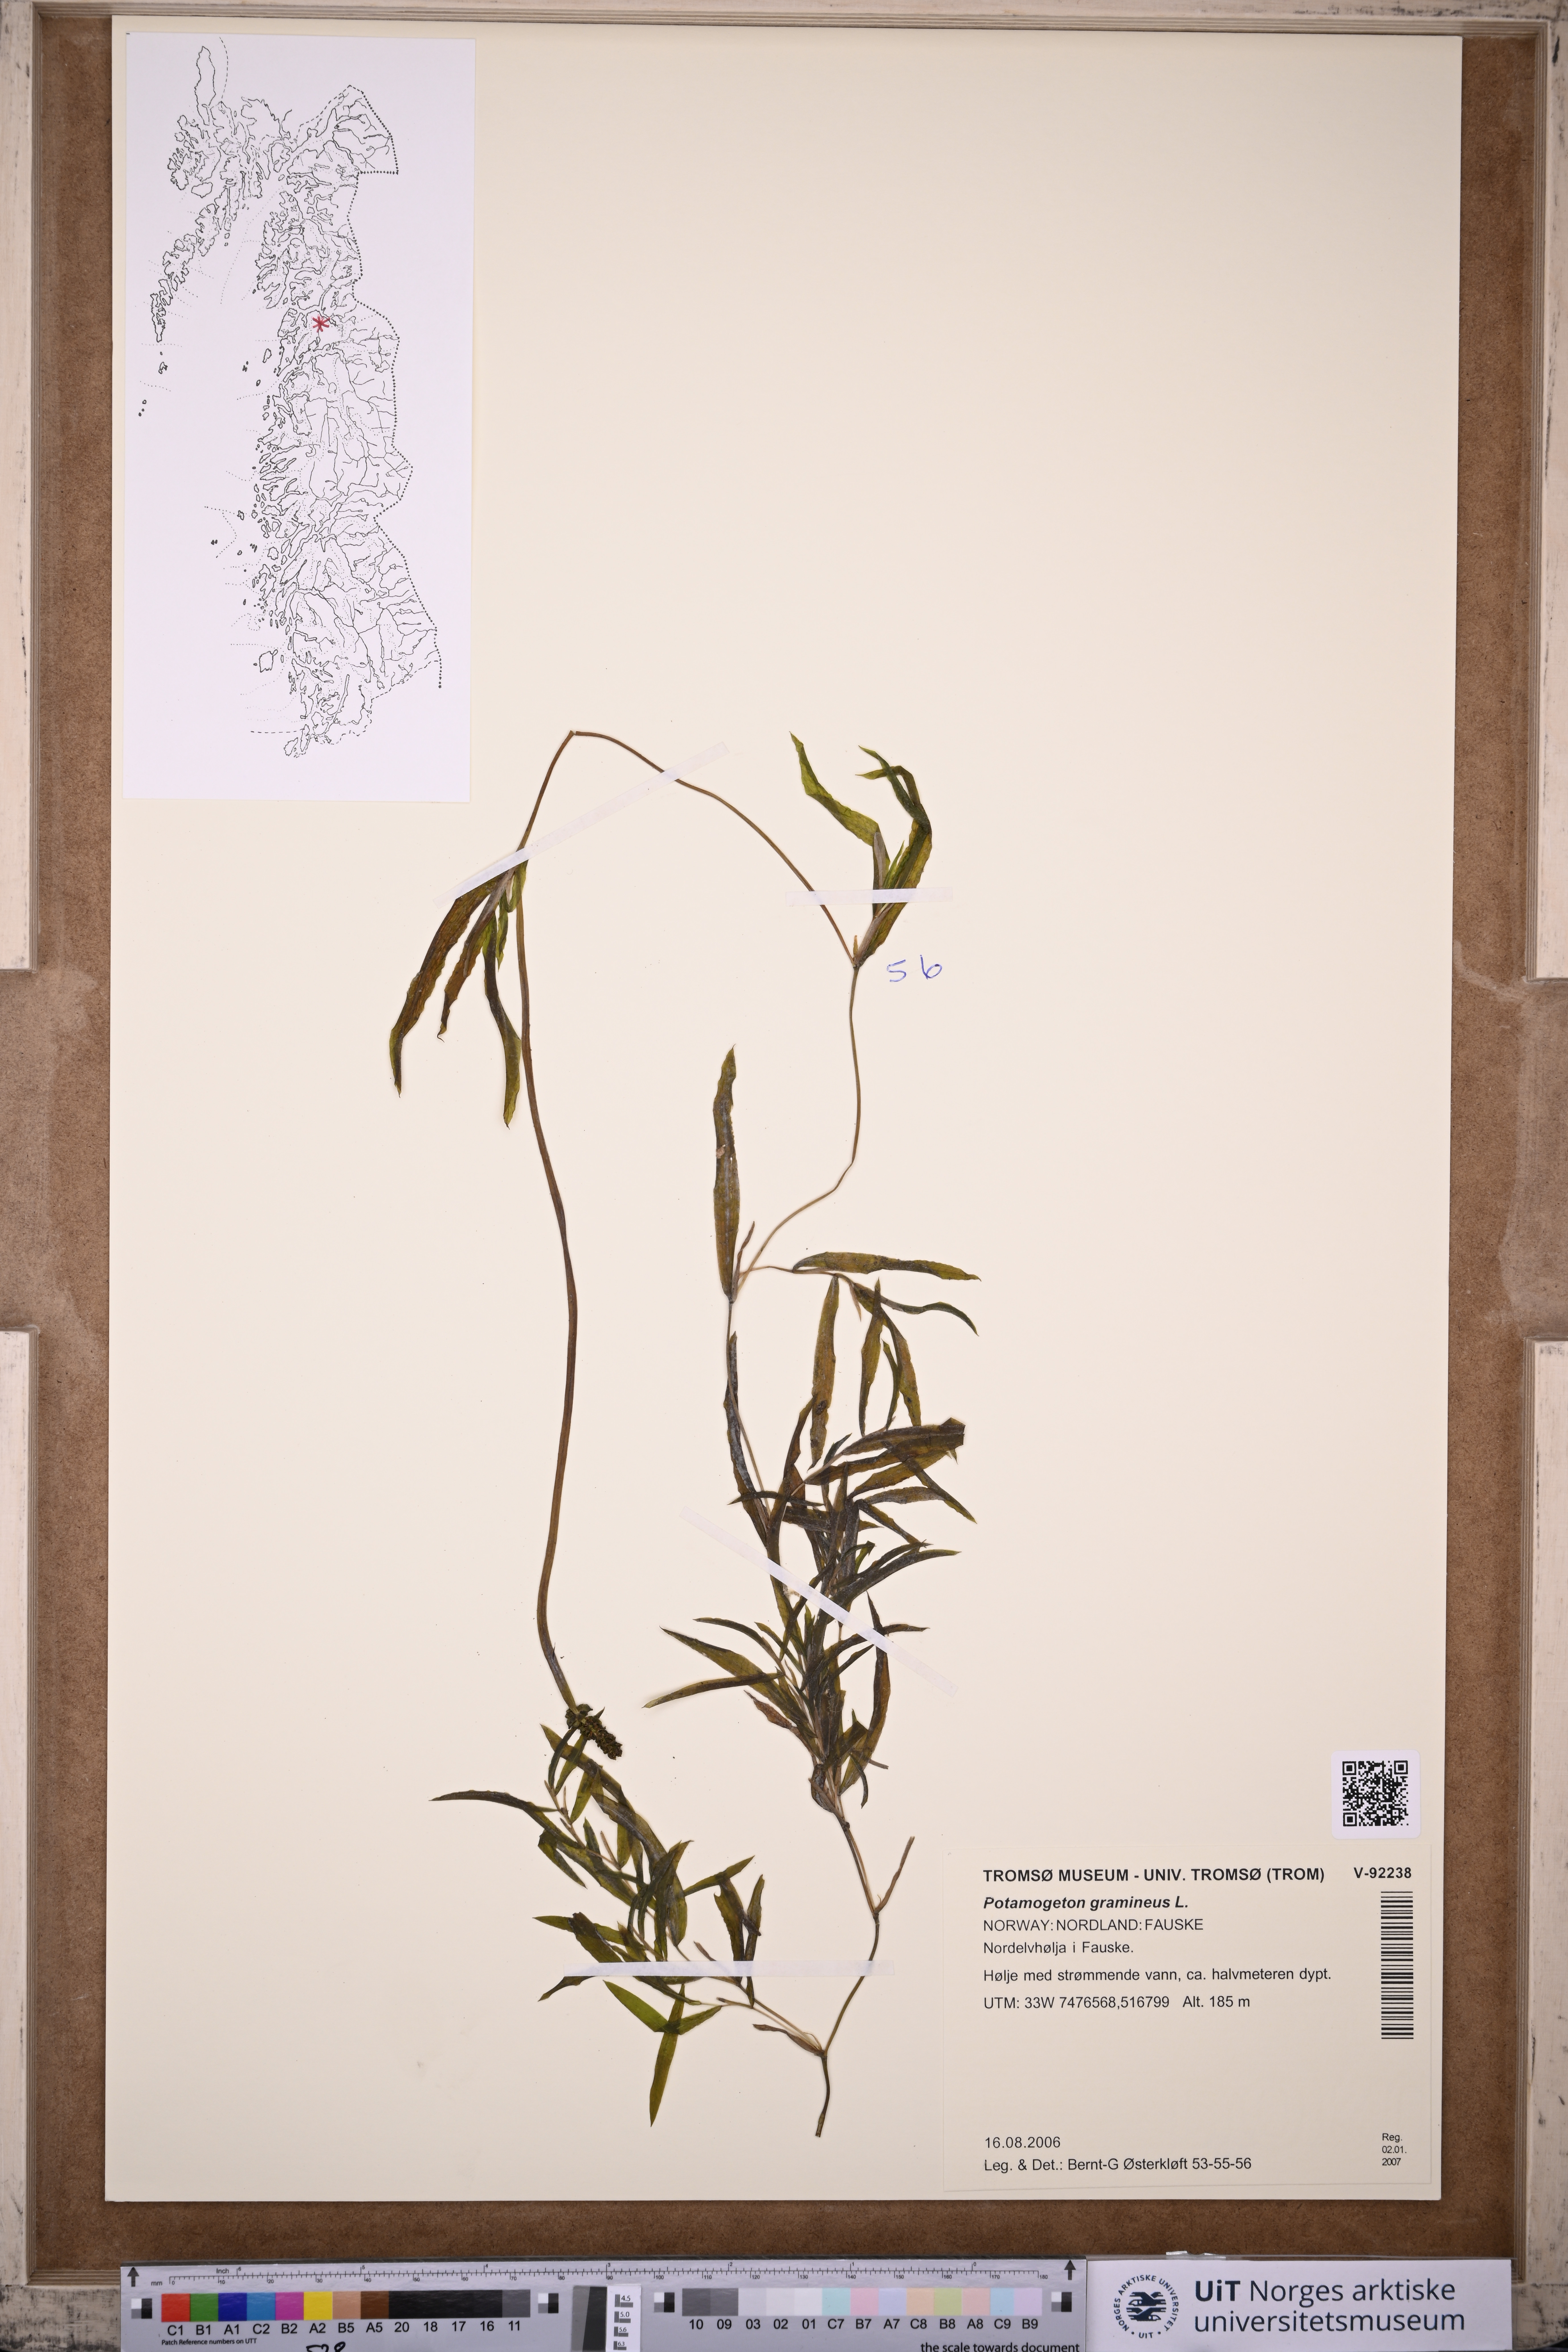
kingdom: Plantae
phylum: Tracheophyta
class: Liliopsida
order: Alismatales
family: Potamogetonaceae
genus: Potamogeton
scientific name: Potamogeton gramineus
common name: Various-leaved pondweed
